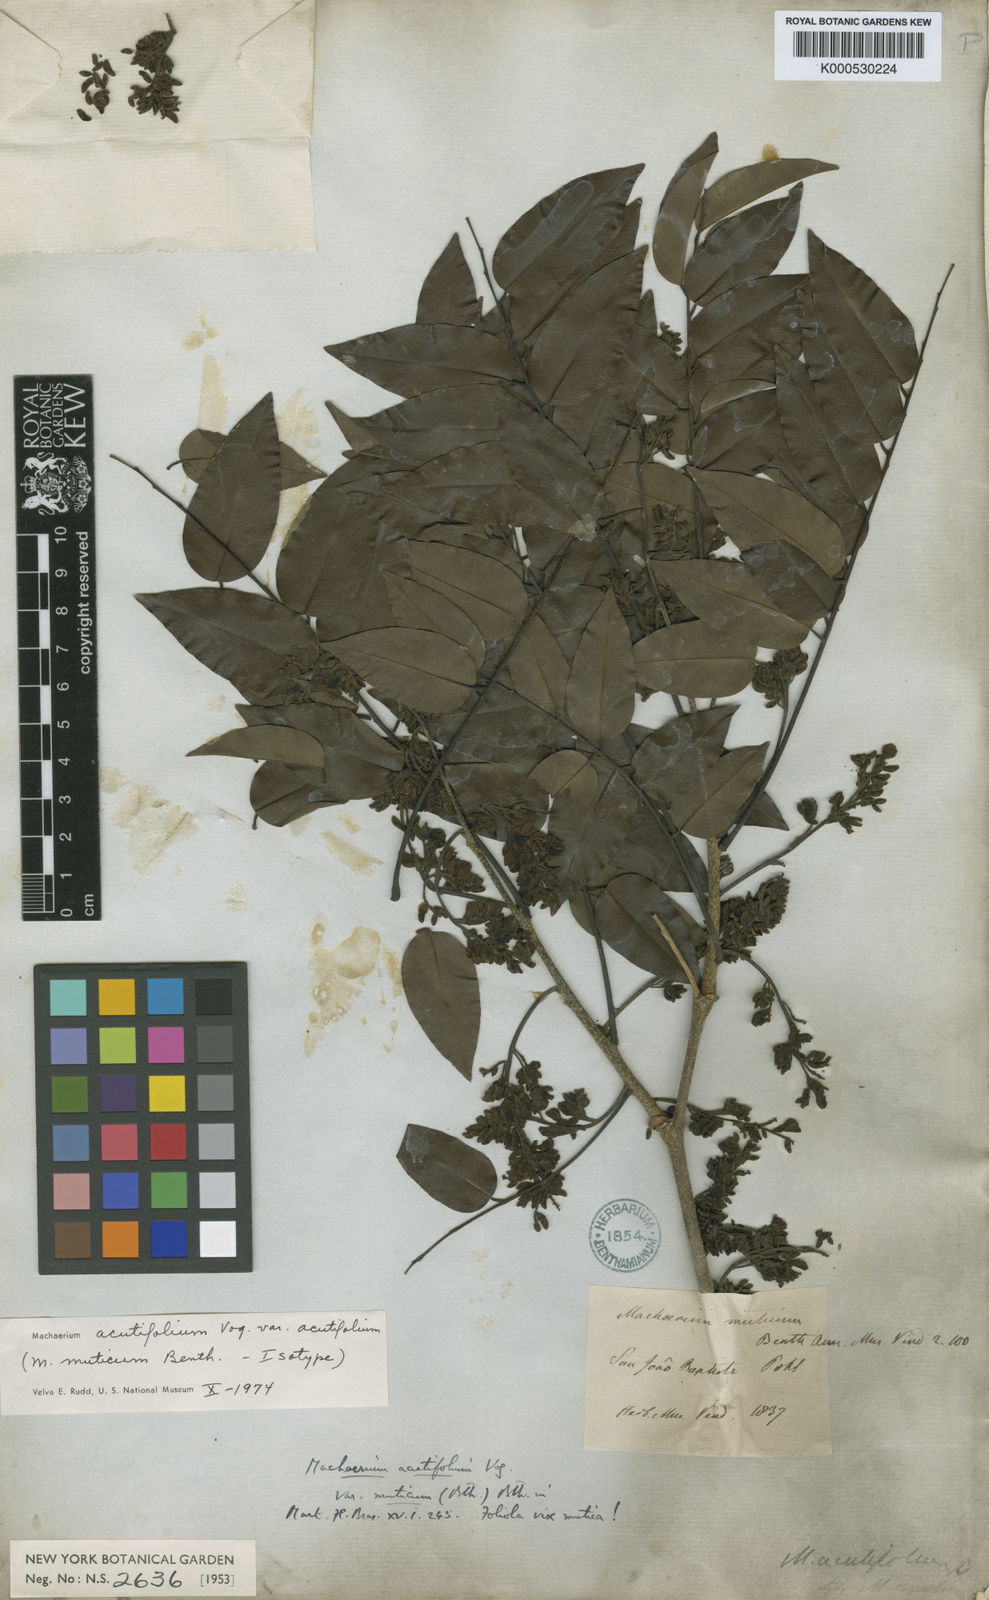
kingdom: Plantae
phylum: Tracheophyta
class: Magnoliopsida
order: Fabales
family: Fabaceae
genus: Machaerium
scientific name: Machaerium acutifolium
